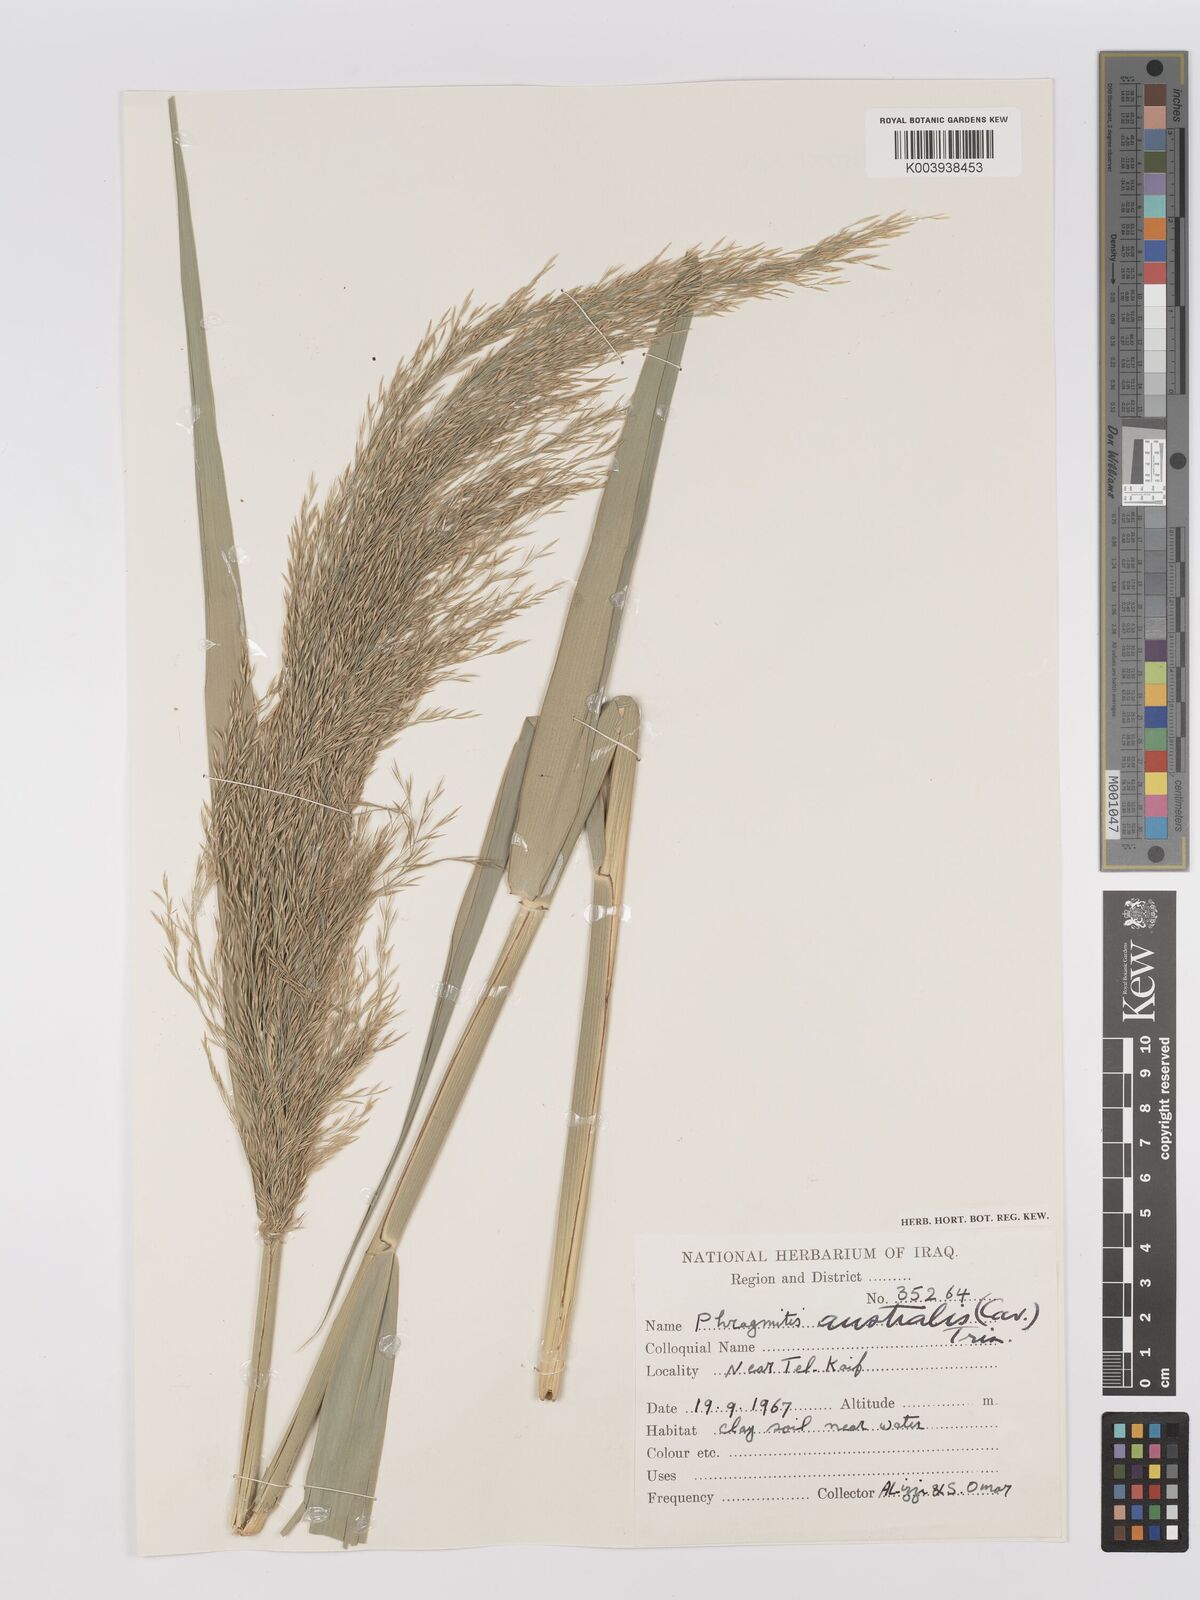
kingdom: Plantae
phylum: Tracheophyta
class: Liliopsida
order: Poales
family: Poaceae
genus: Phragmites
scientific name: Phragmites australis
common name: Common reed
